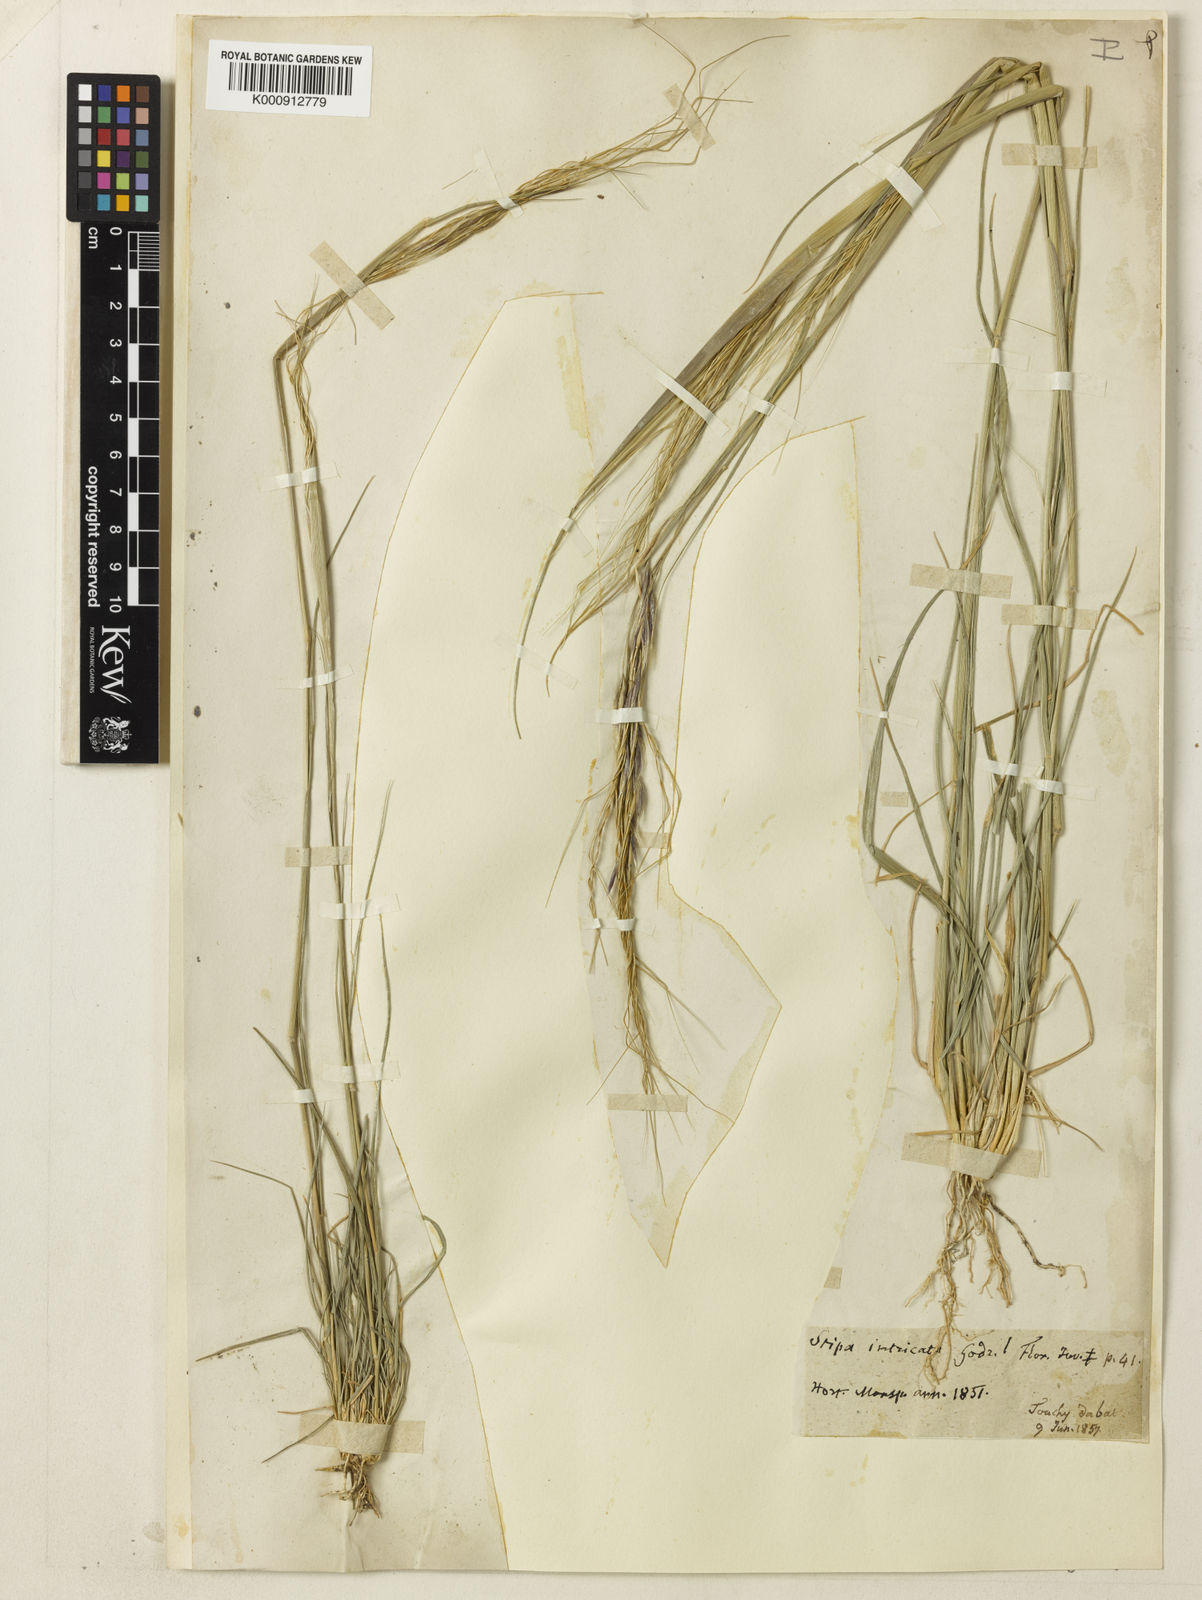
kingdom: Plantae
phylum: Tracheophyta
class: Liliopsida
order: Poales
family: Poaceae
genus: Nassella
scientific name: Nassella neesiana
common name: American needle-grass
